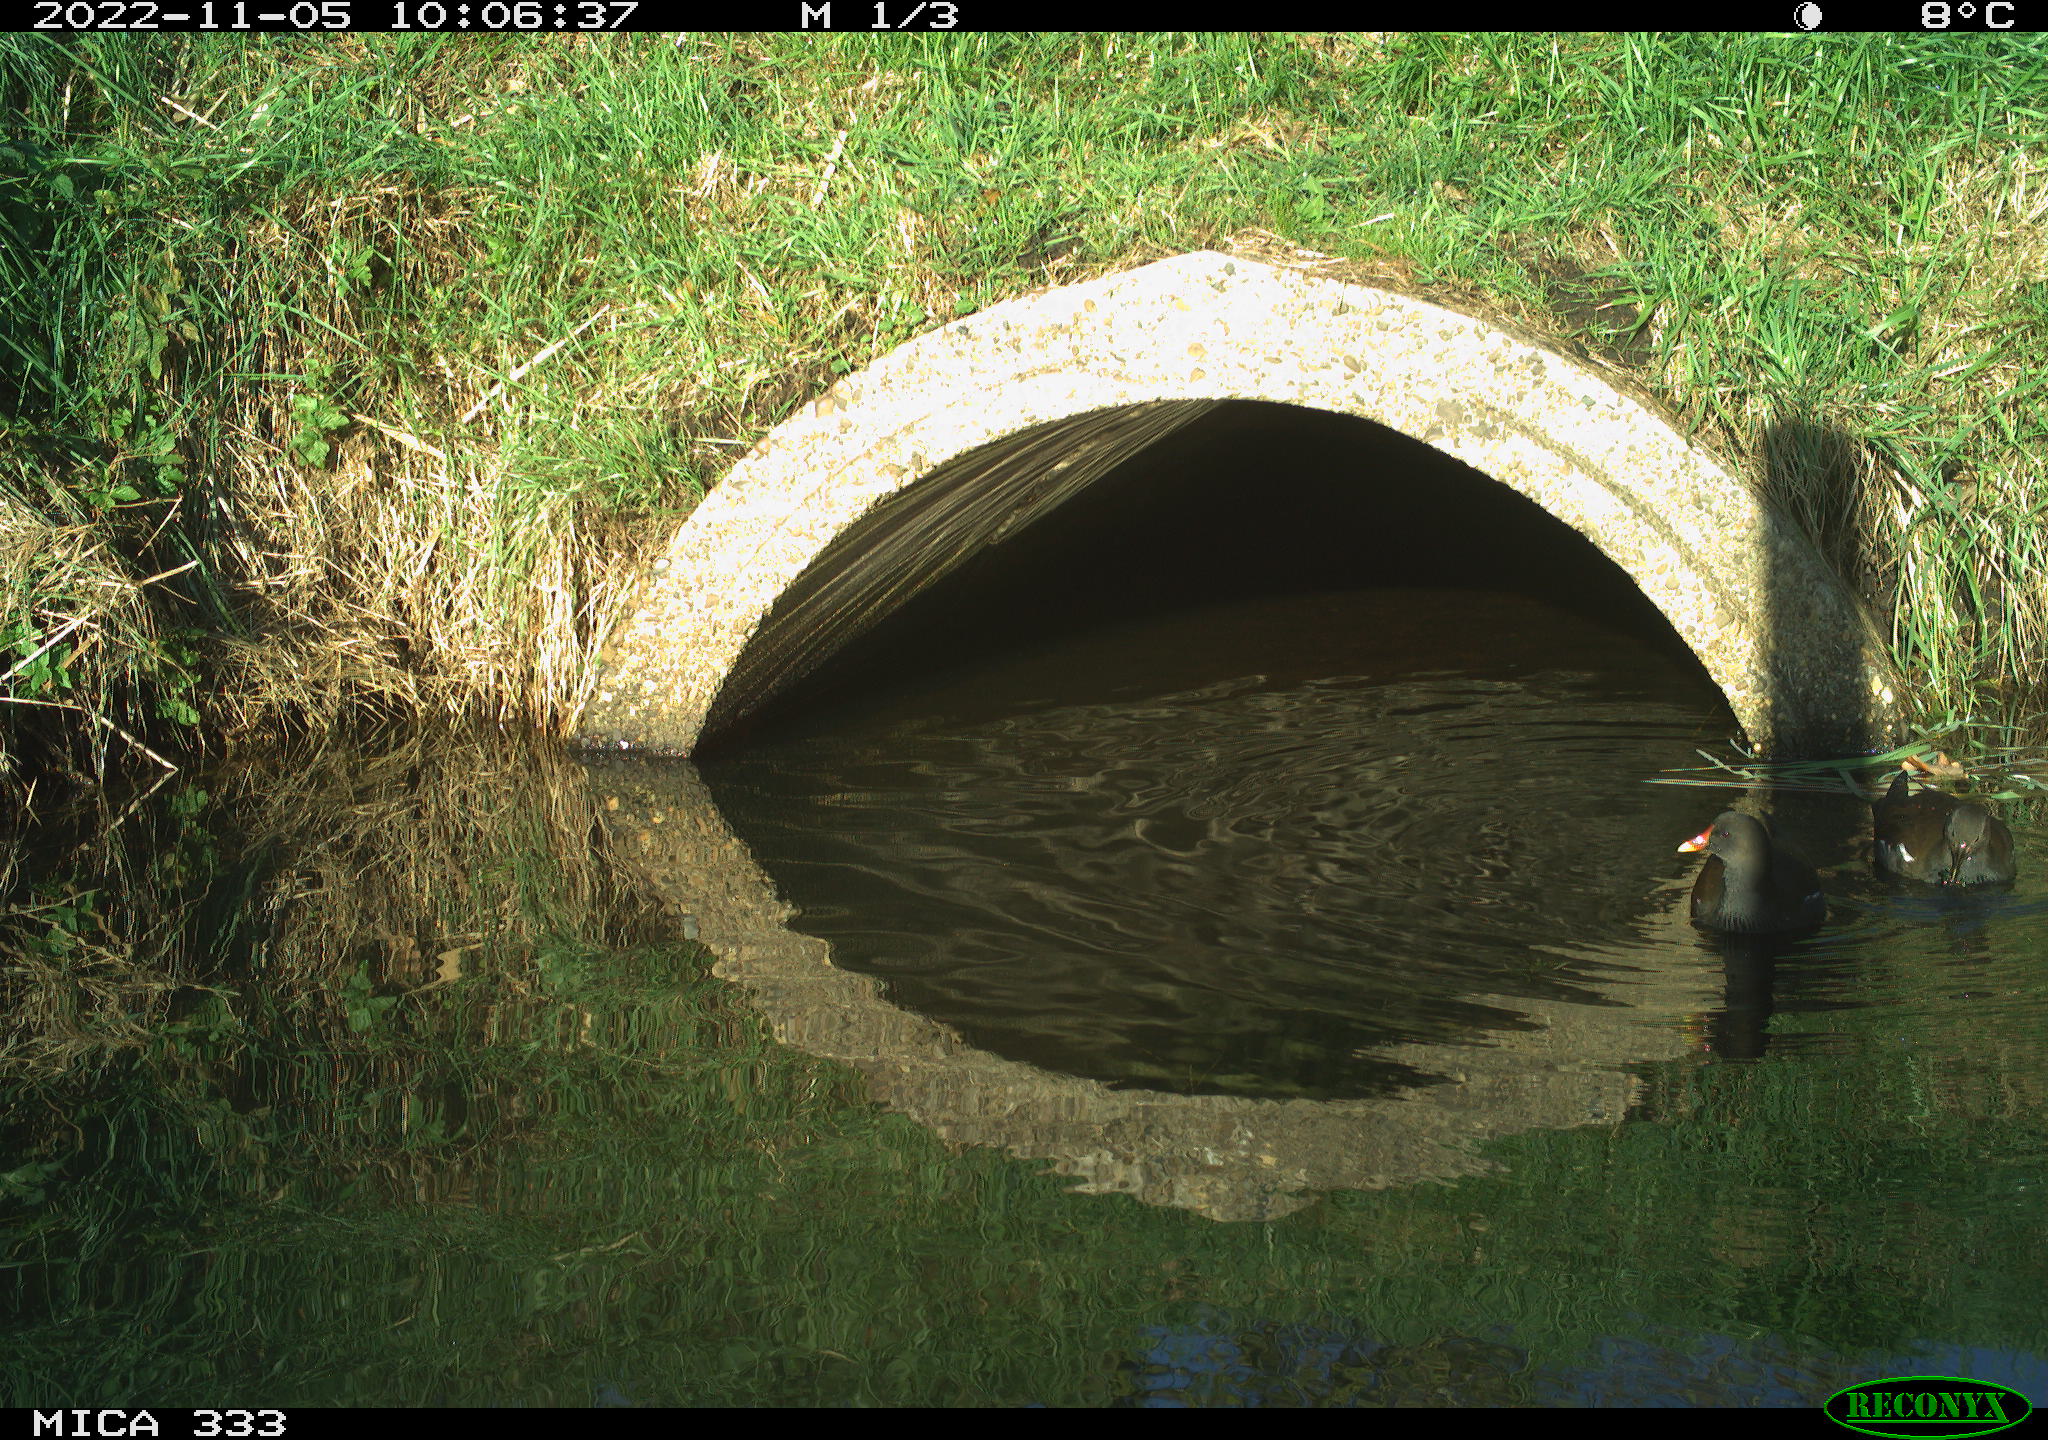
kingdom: Animalia
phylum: Chordata
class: Aves
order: Gruiformes
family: Rallidae
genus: Gallinula
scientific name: Gallinula chloropus
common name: Common moorhen
